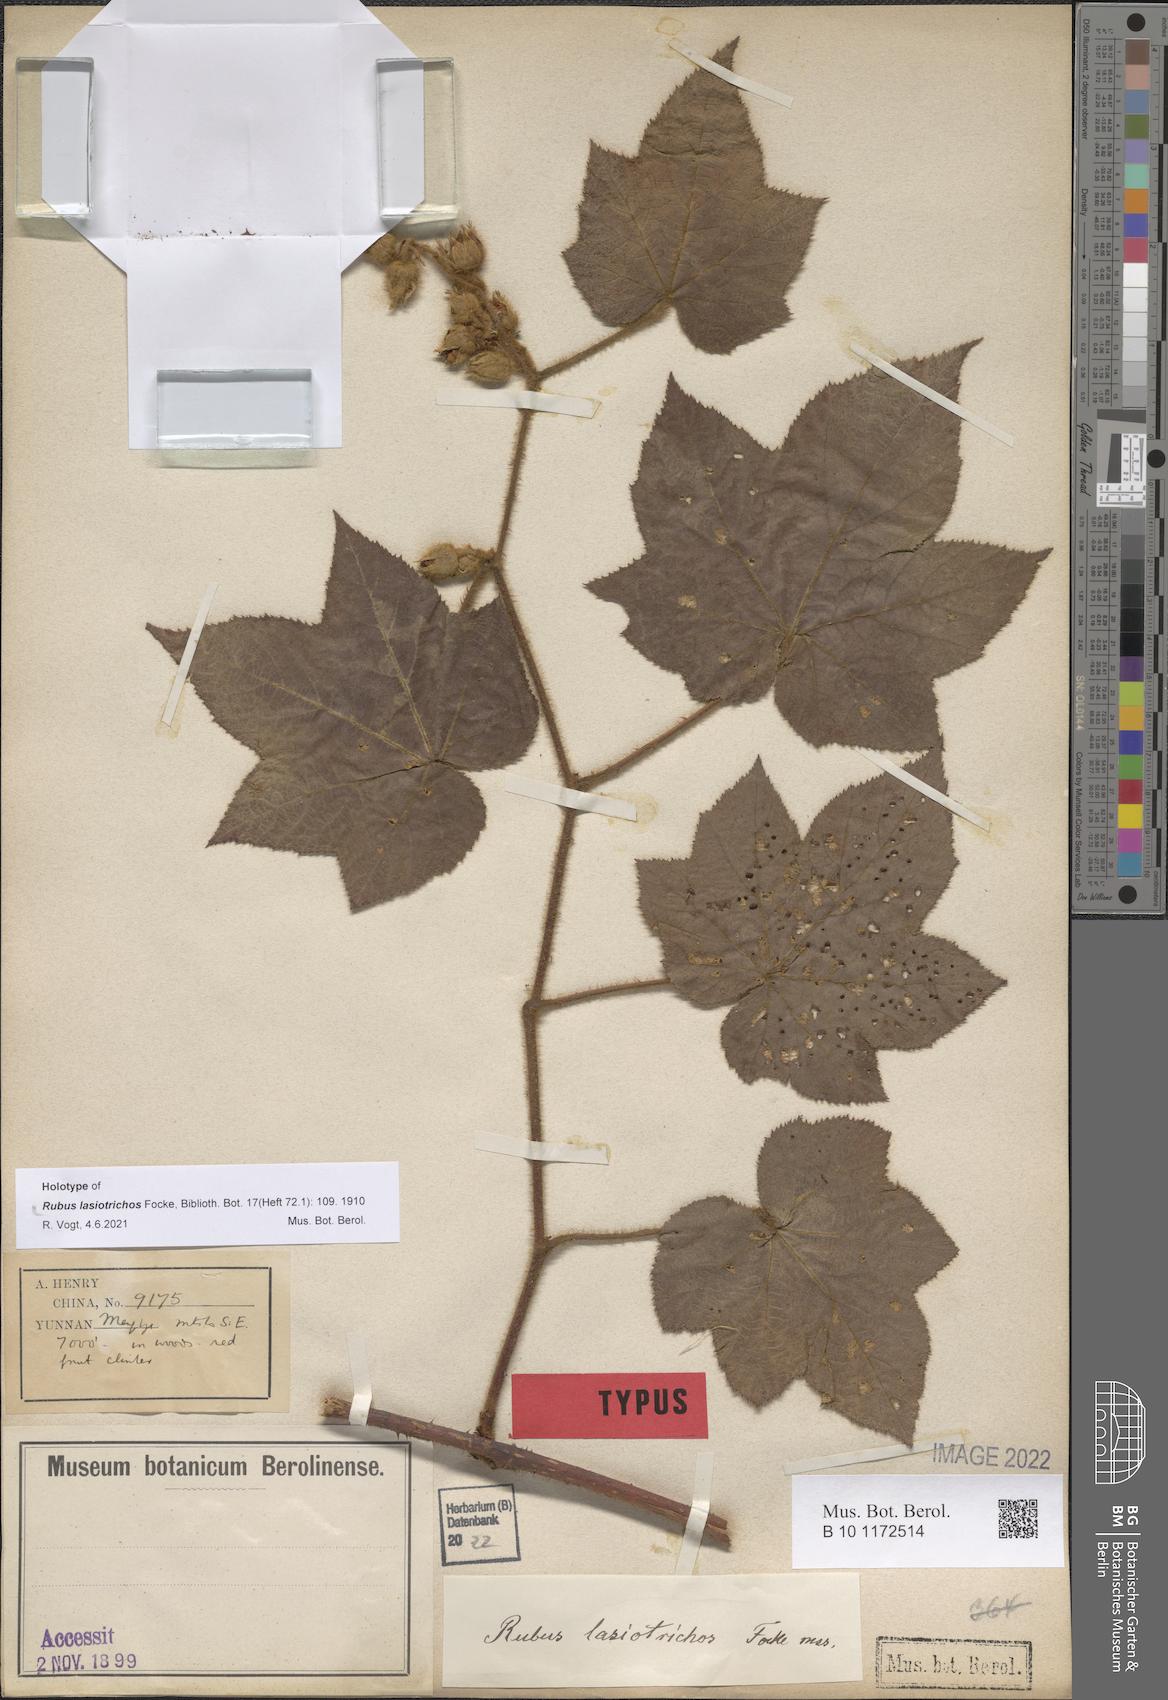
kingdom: Plantae
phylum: Tracheophyta
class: Magnoliopsida
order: Rosales
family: Rosaceae
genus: Rubus
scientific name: Rubus lasiotrichos
